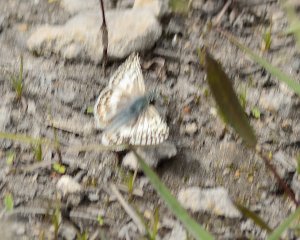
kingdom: Animalia
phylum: Arthropoda
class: Insecta
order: Lepidoptera
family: Hesperiidae
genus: Pyrgus
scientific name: Pyrgus
